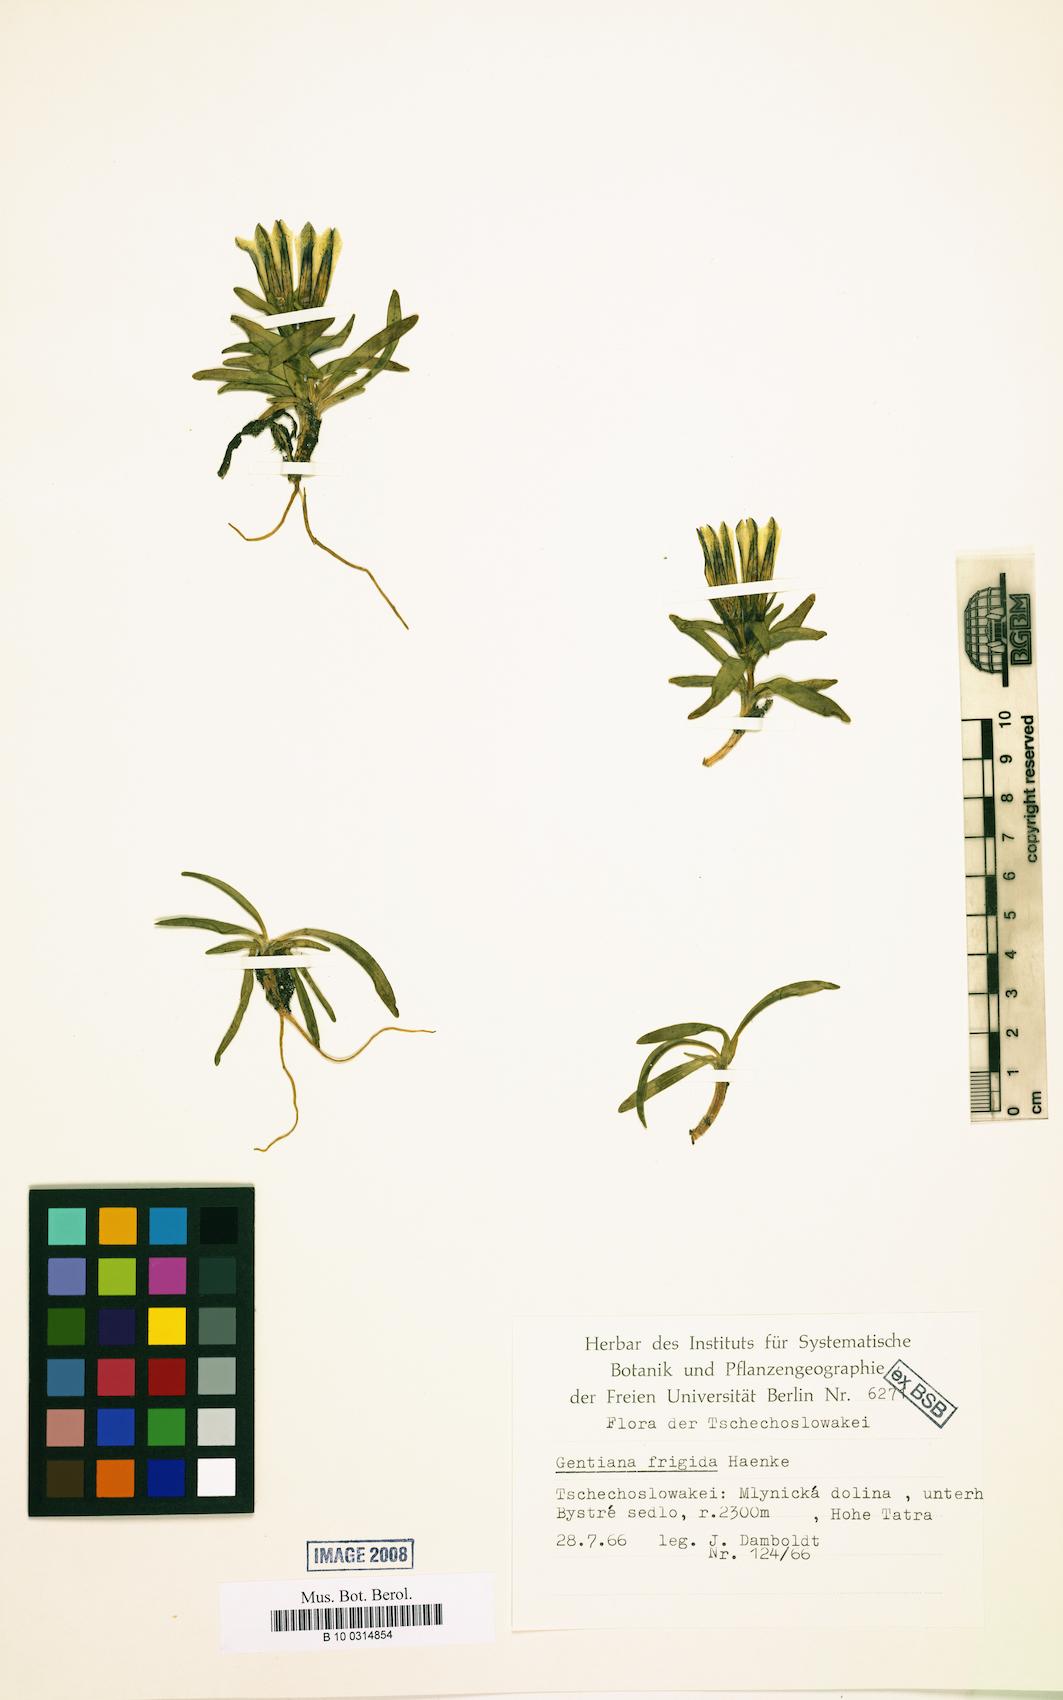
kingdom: Plantae
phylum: Tracheophyta
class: Magnoliopsida
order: Gentianales
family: Gentianaceae
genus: Gentiana
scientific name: Gentiana frigida
